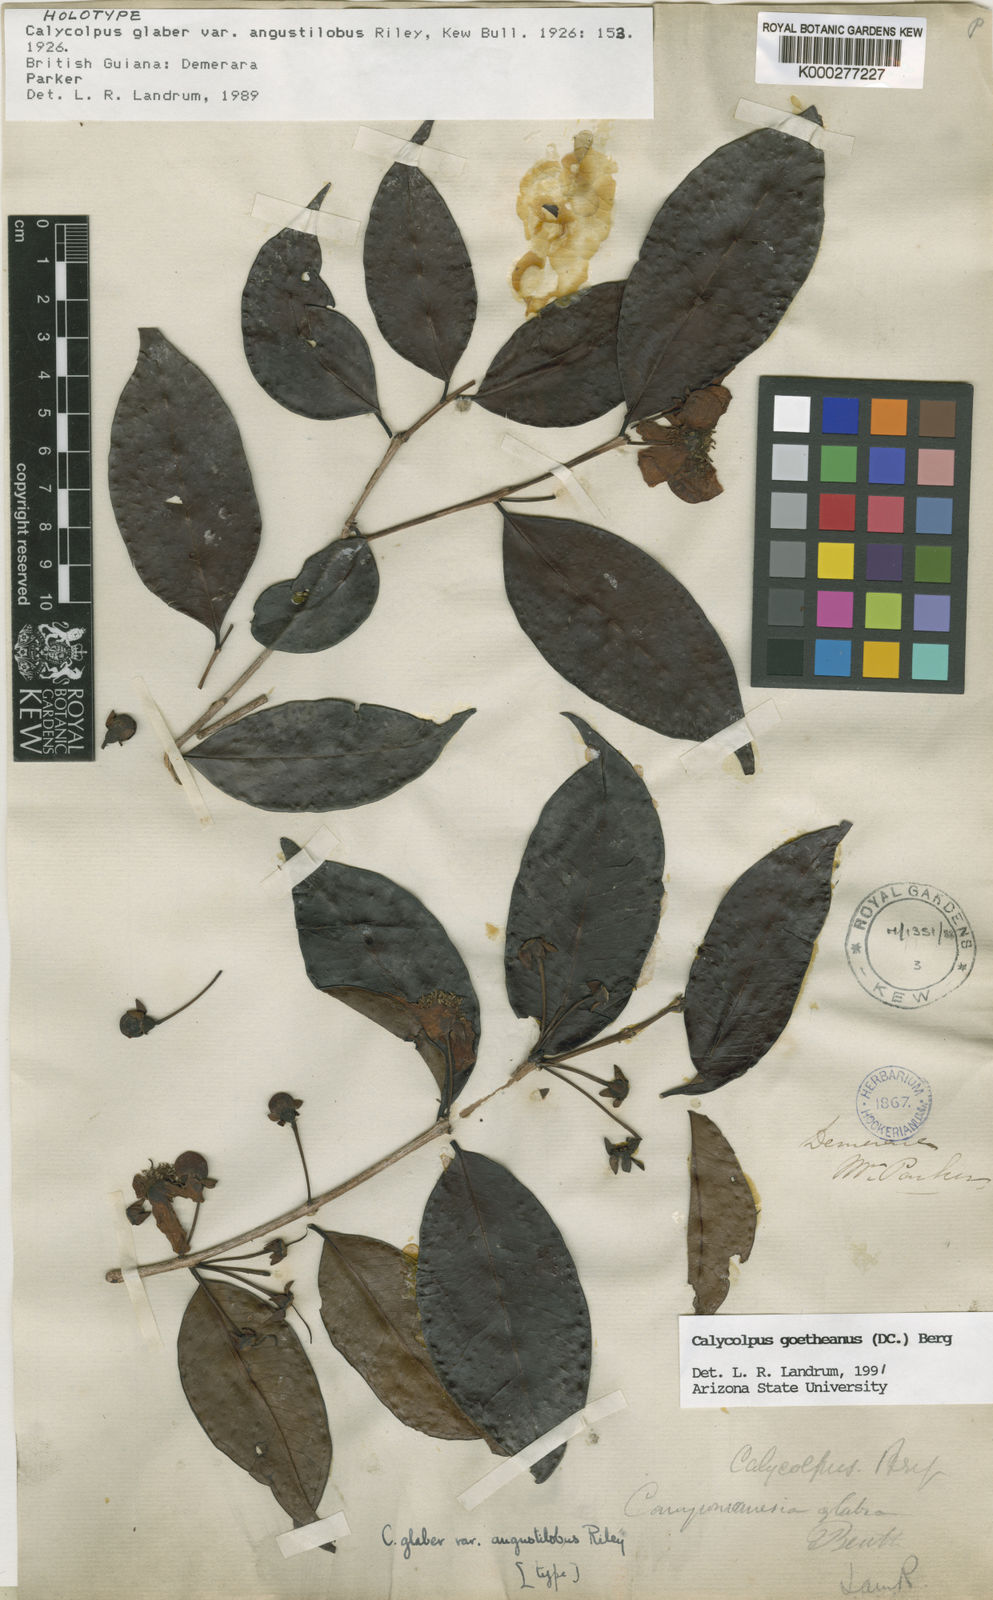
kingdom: Plantae
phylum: Tracheophyta
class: Magnoliopsida
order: Myrtales
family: Myrtaceae
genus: Calycolpus
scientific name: Calycolpus goetheanus
